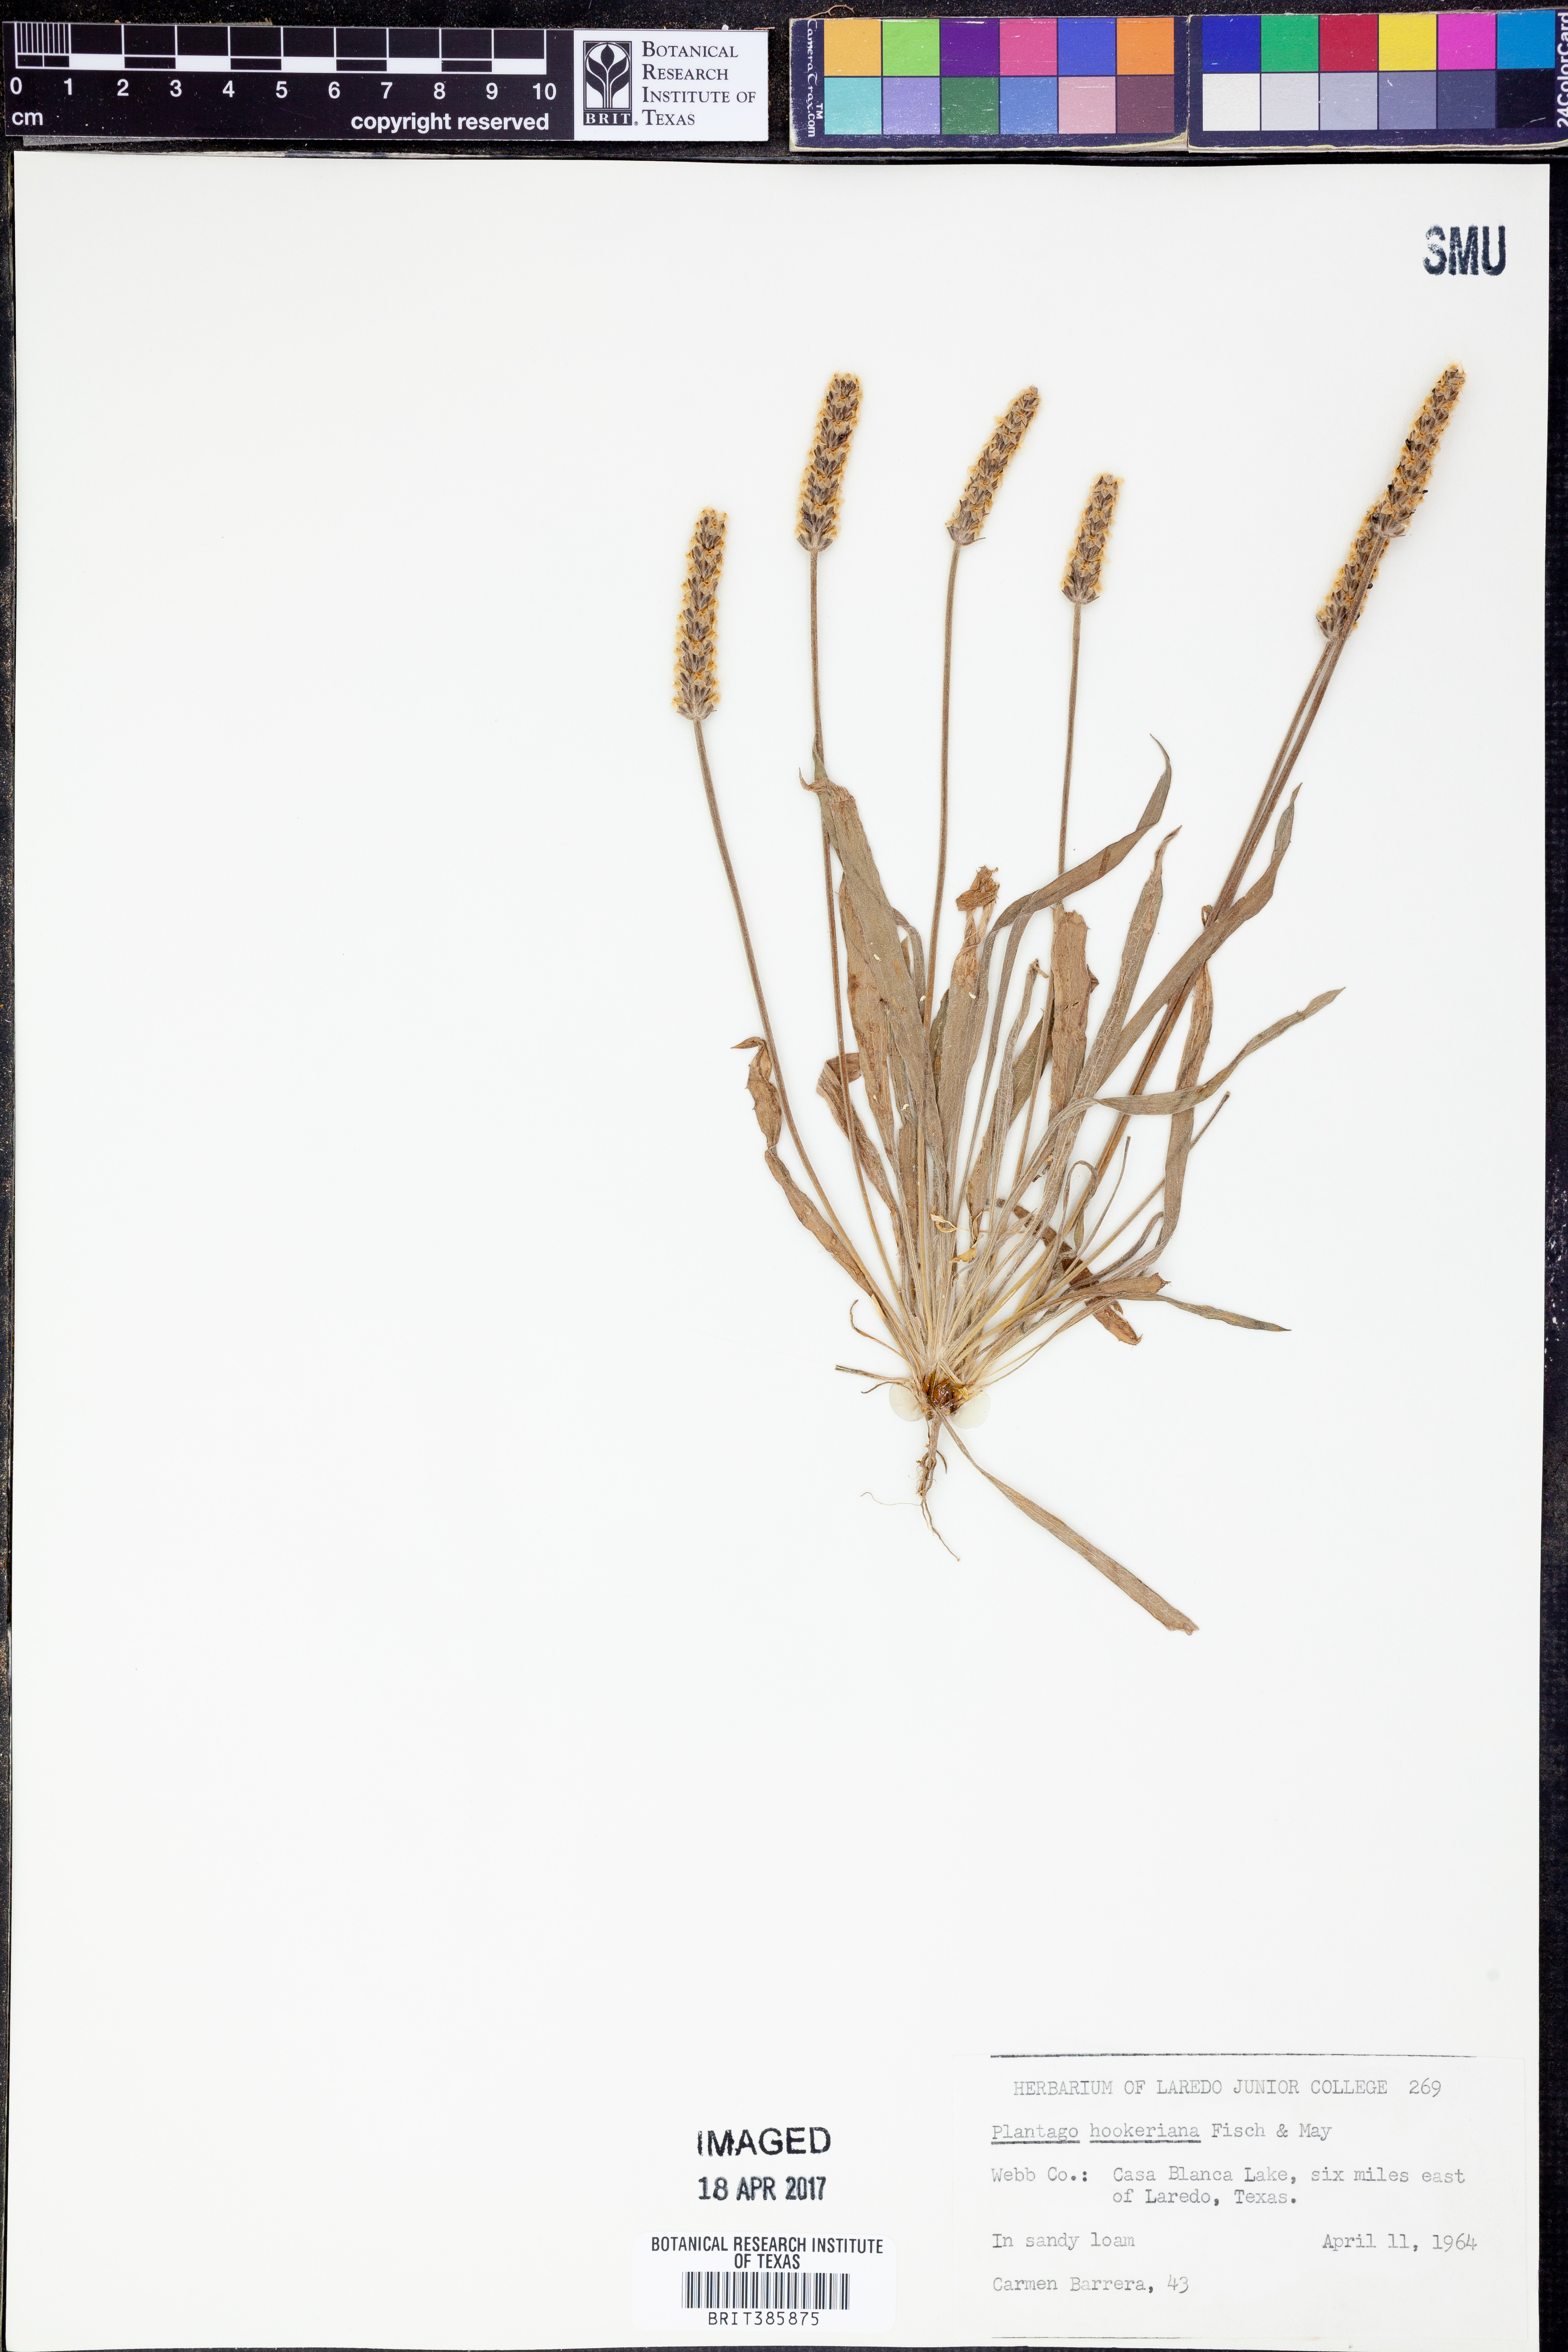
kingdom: Plantae
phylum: Tracheophyta
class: Magnoliopsida
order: Lamiales
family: Plantaginaceae
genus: Plantago
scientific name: Plantago hookeriana
